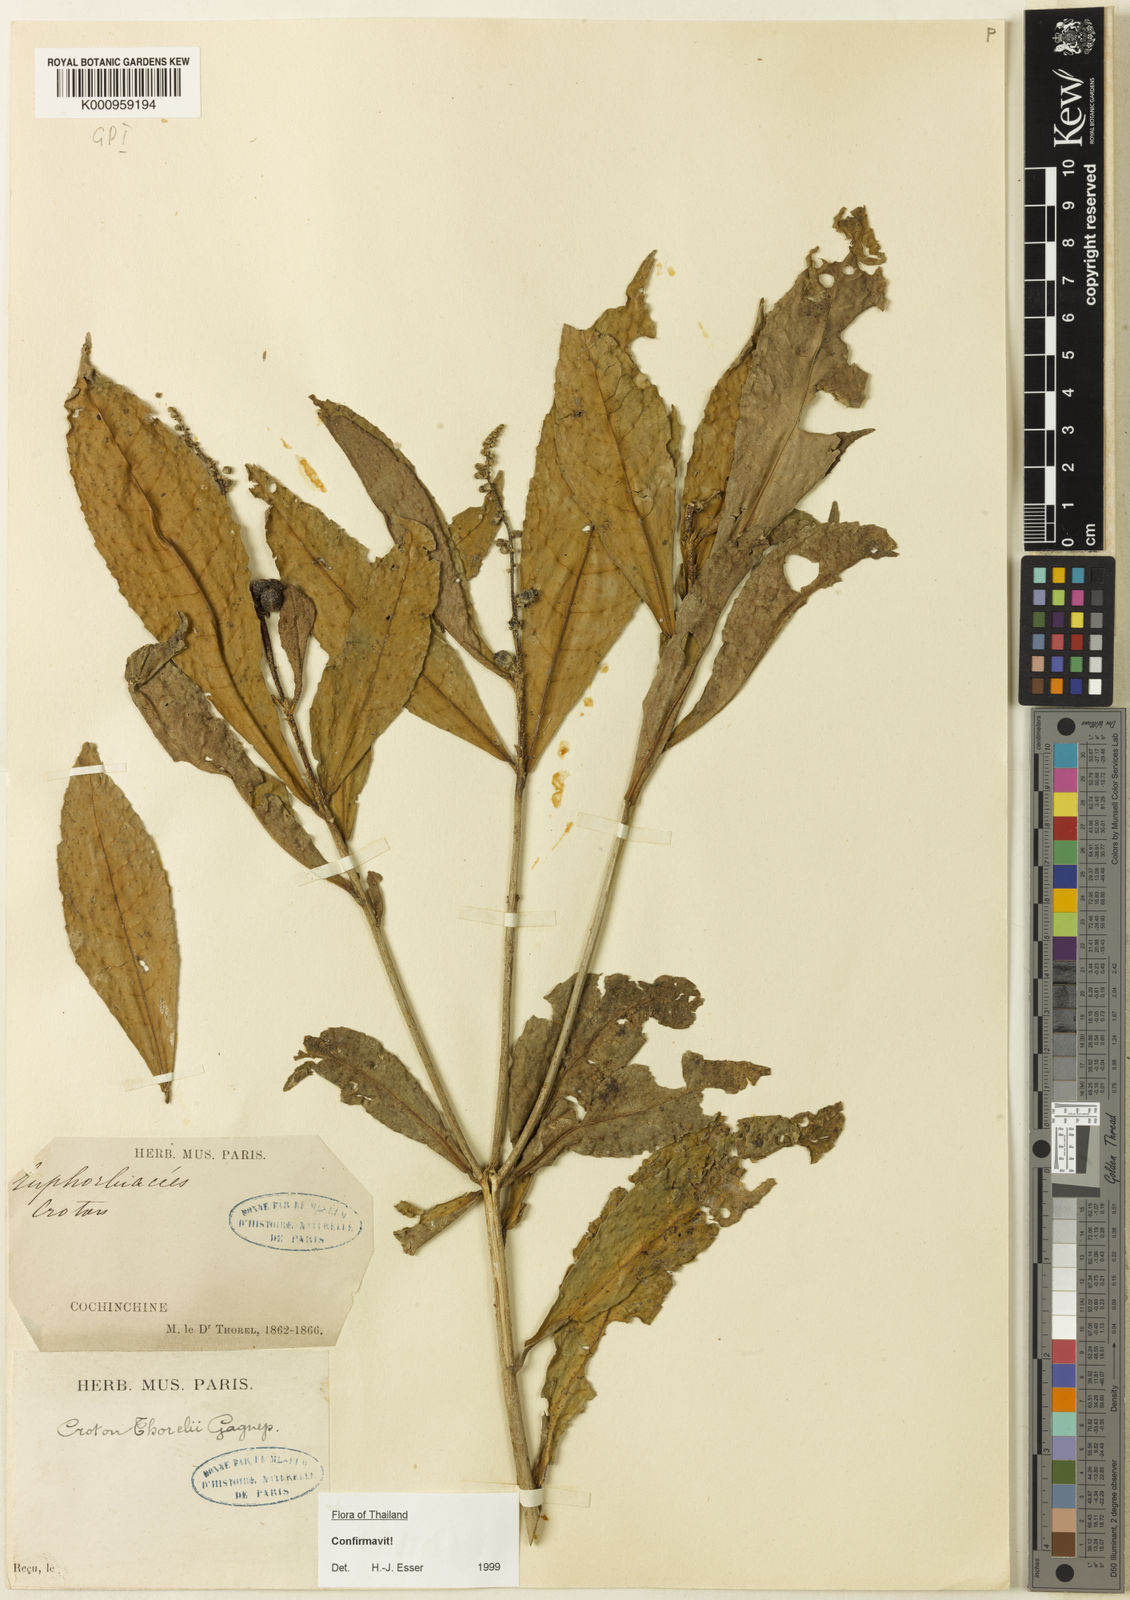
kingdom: Plantae
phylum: Tracheophyta
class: Magnoliopsida
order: Malpighiales
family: Euphorbiaceae
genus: Croton
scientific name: Croton thorelii
